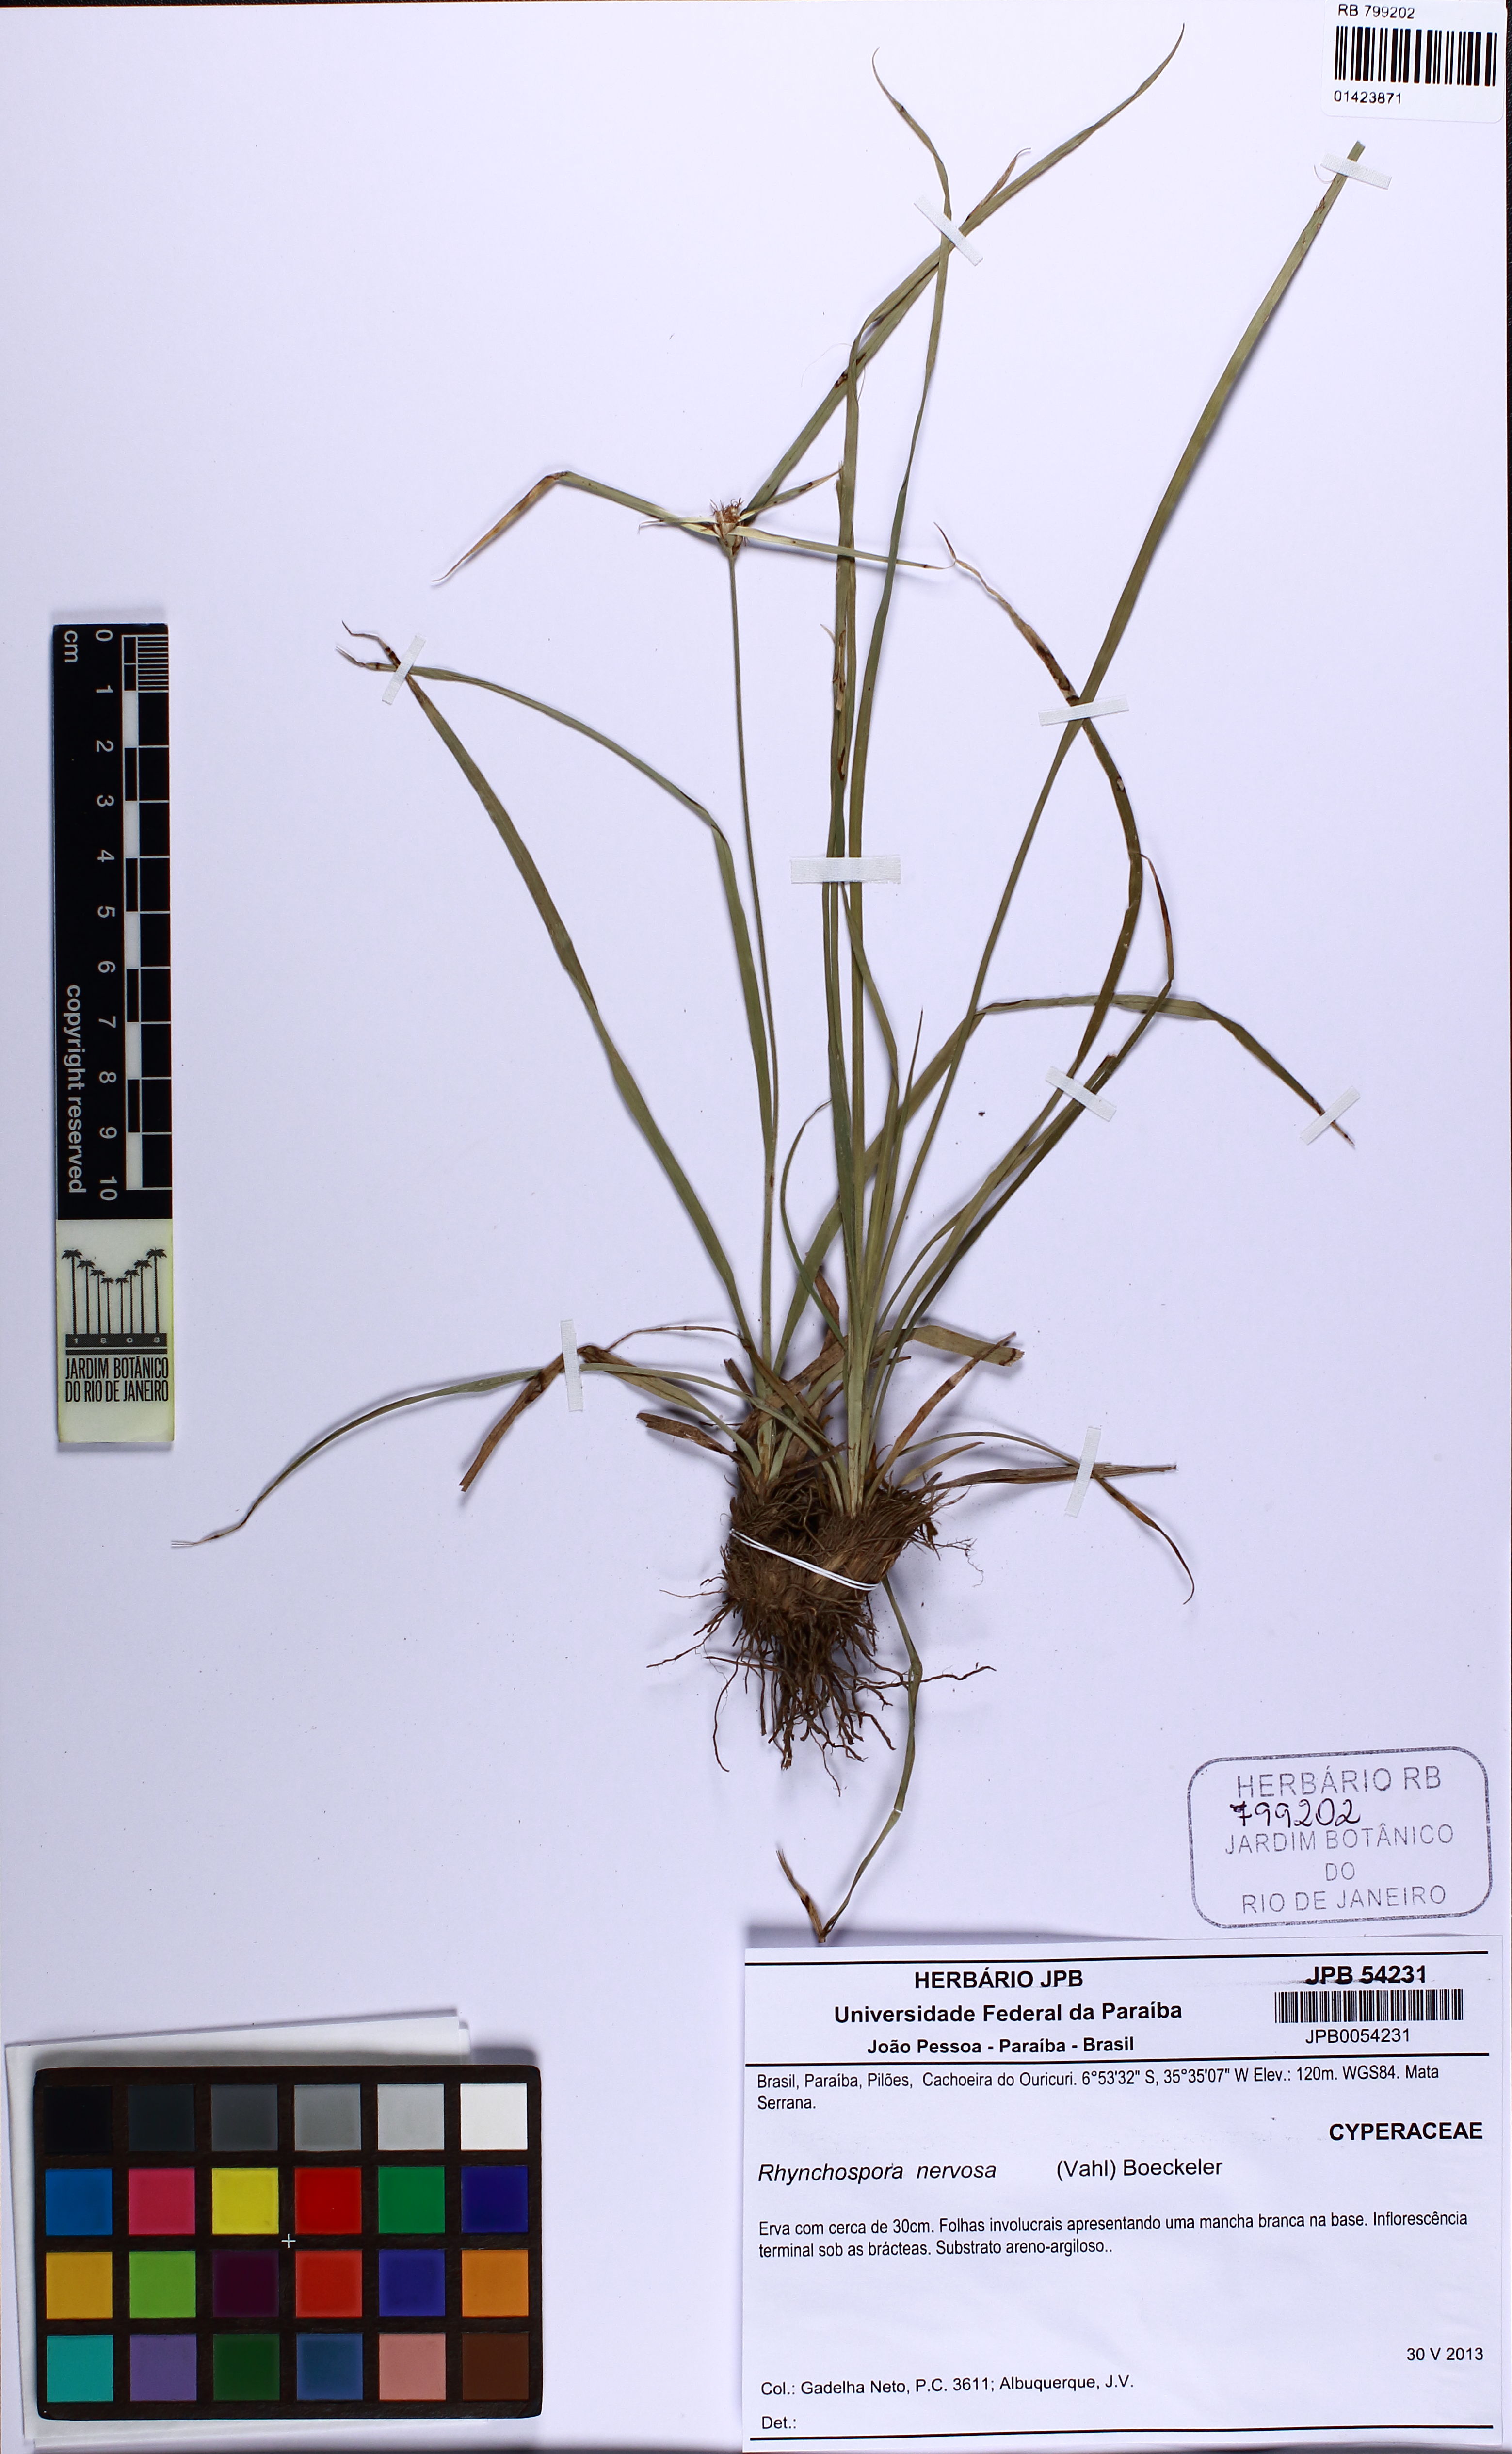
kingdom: Plantae
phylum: Tracheophyta
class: Liliopsida
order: Poales
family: Cyperaceae
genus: Rhynchospora
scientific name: Rhynchospora nervosa
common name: Star sedge
